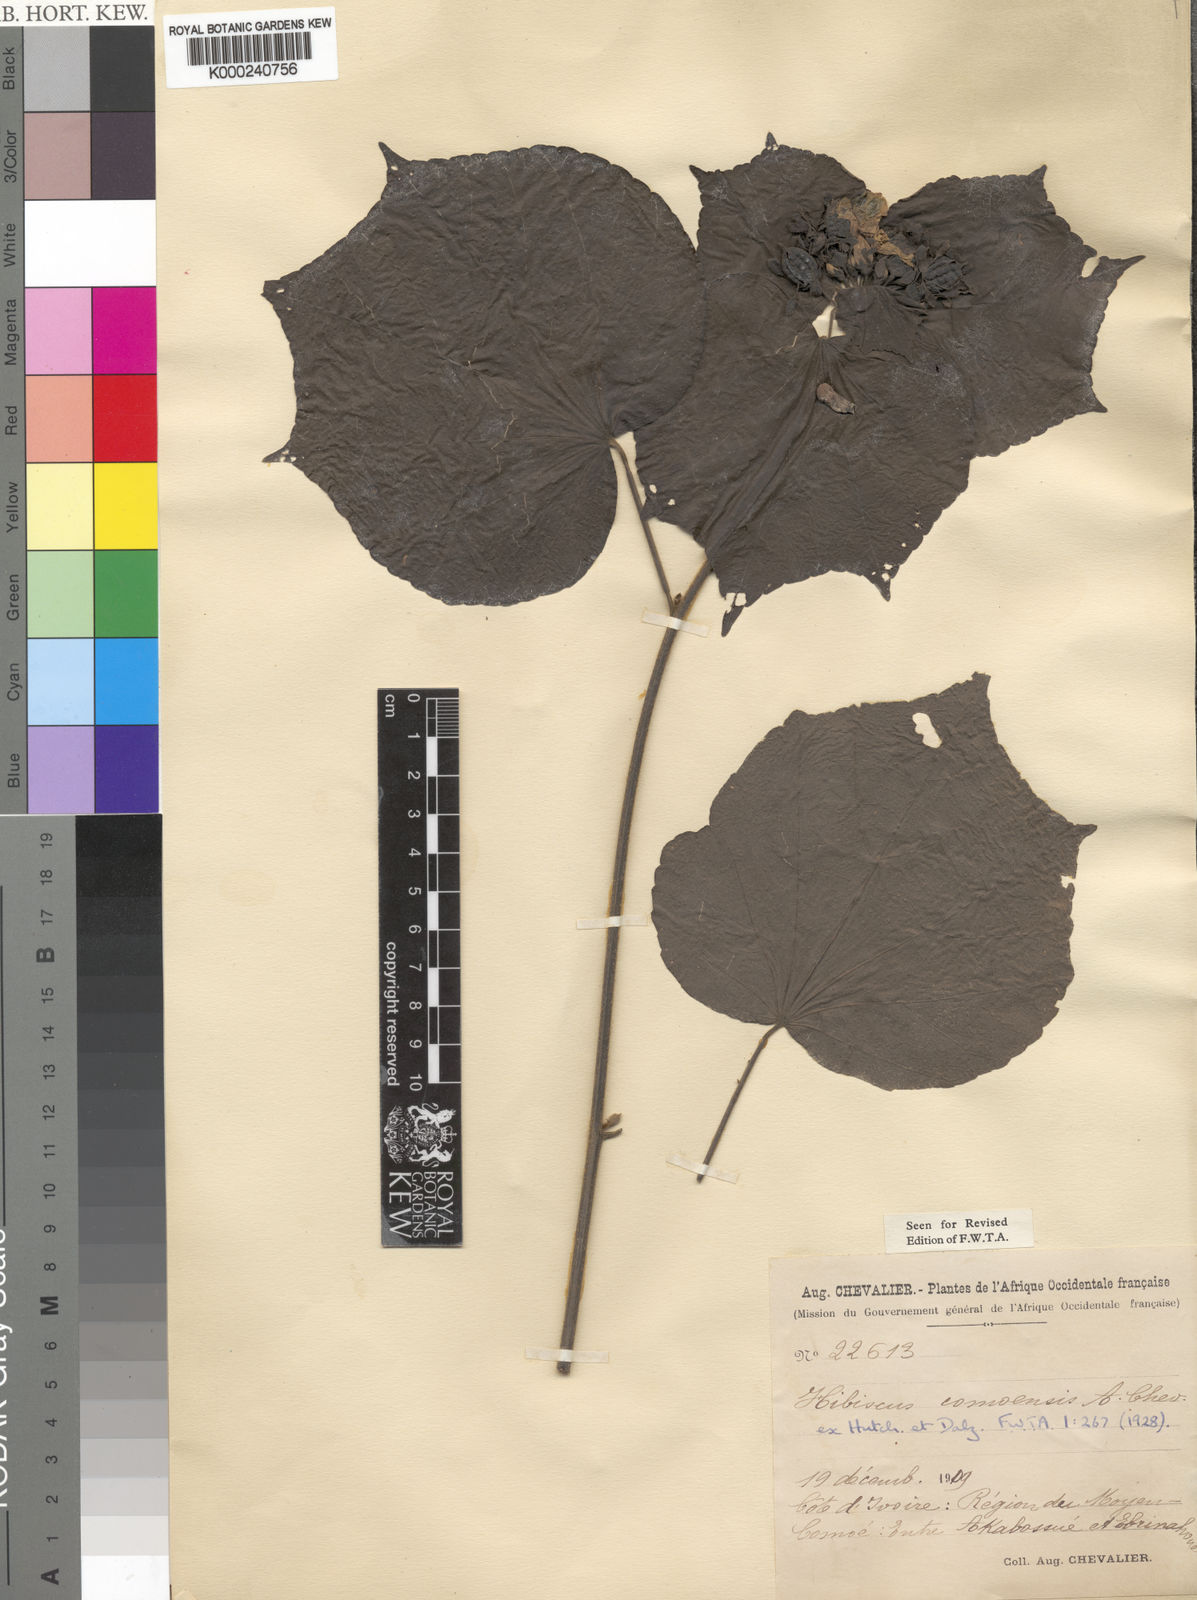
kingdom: Plantae
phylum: Tracheophyta
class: Magnoliopsida
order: Malvales
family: Malvaceae
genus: Hibiscus
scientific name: Hibiscus comoensis
